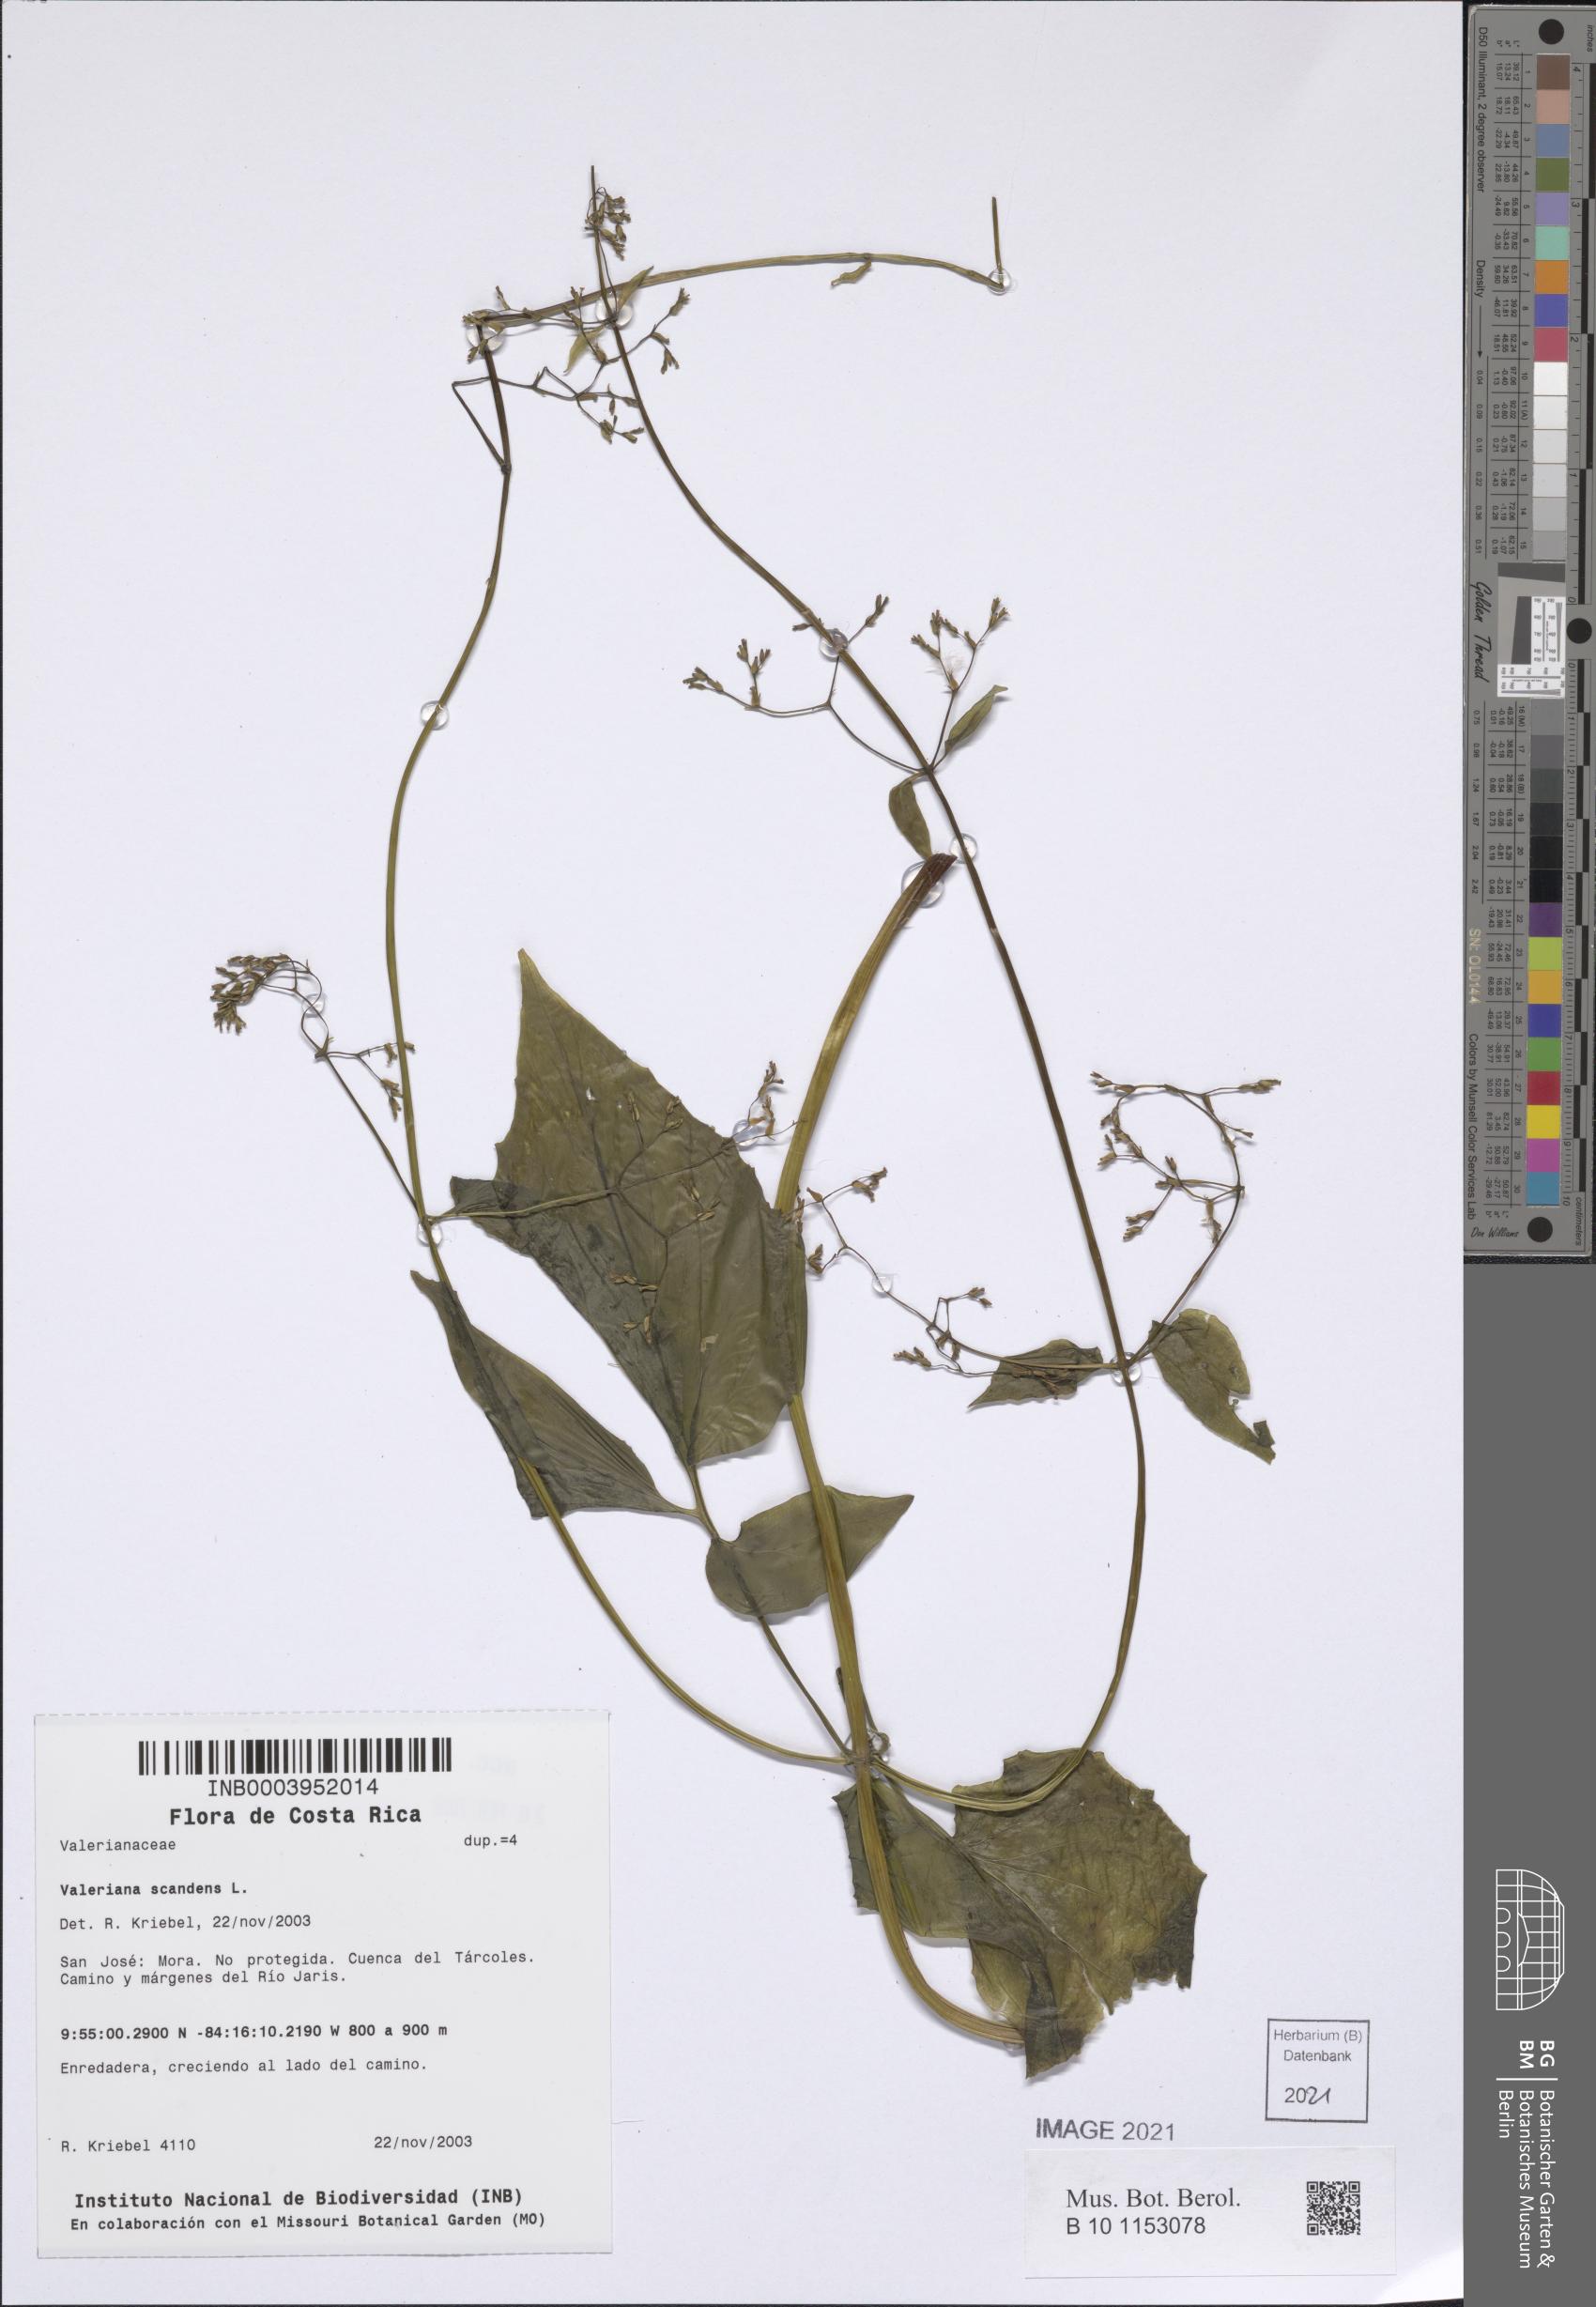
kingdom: Plantae
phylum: Tracheophyta
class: Magnoliopsida
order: Dipsacales
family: Caprifoliaceae
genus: Valeriana
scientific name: Valeriana scandens
